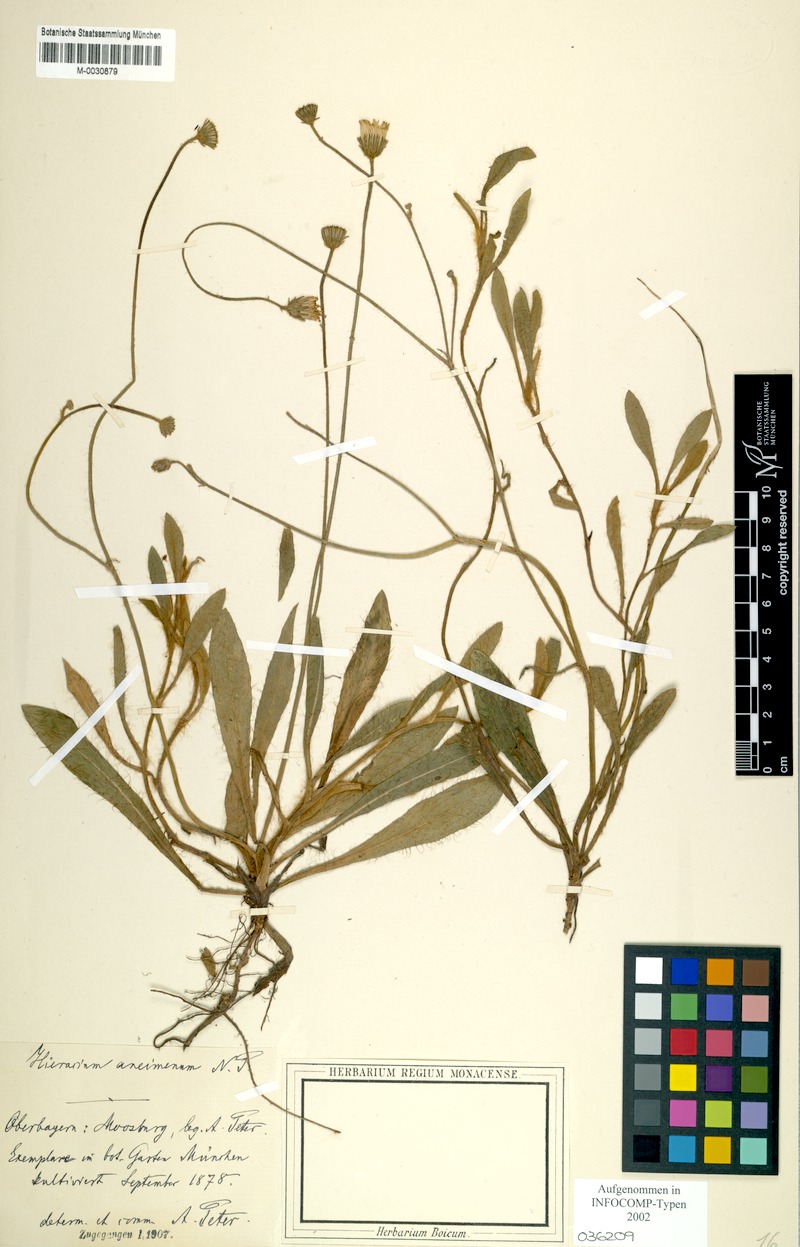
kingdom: Plantae
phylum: Tracheophyta
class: Magnoliopsida
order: Asterales
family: Asteraceae
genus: Pilosella
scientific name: Pilosella aneimena
